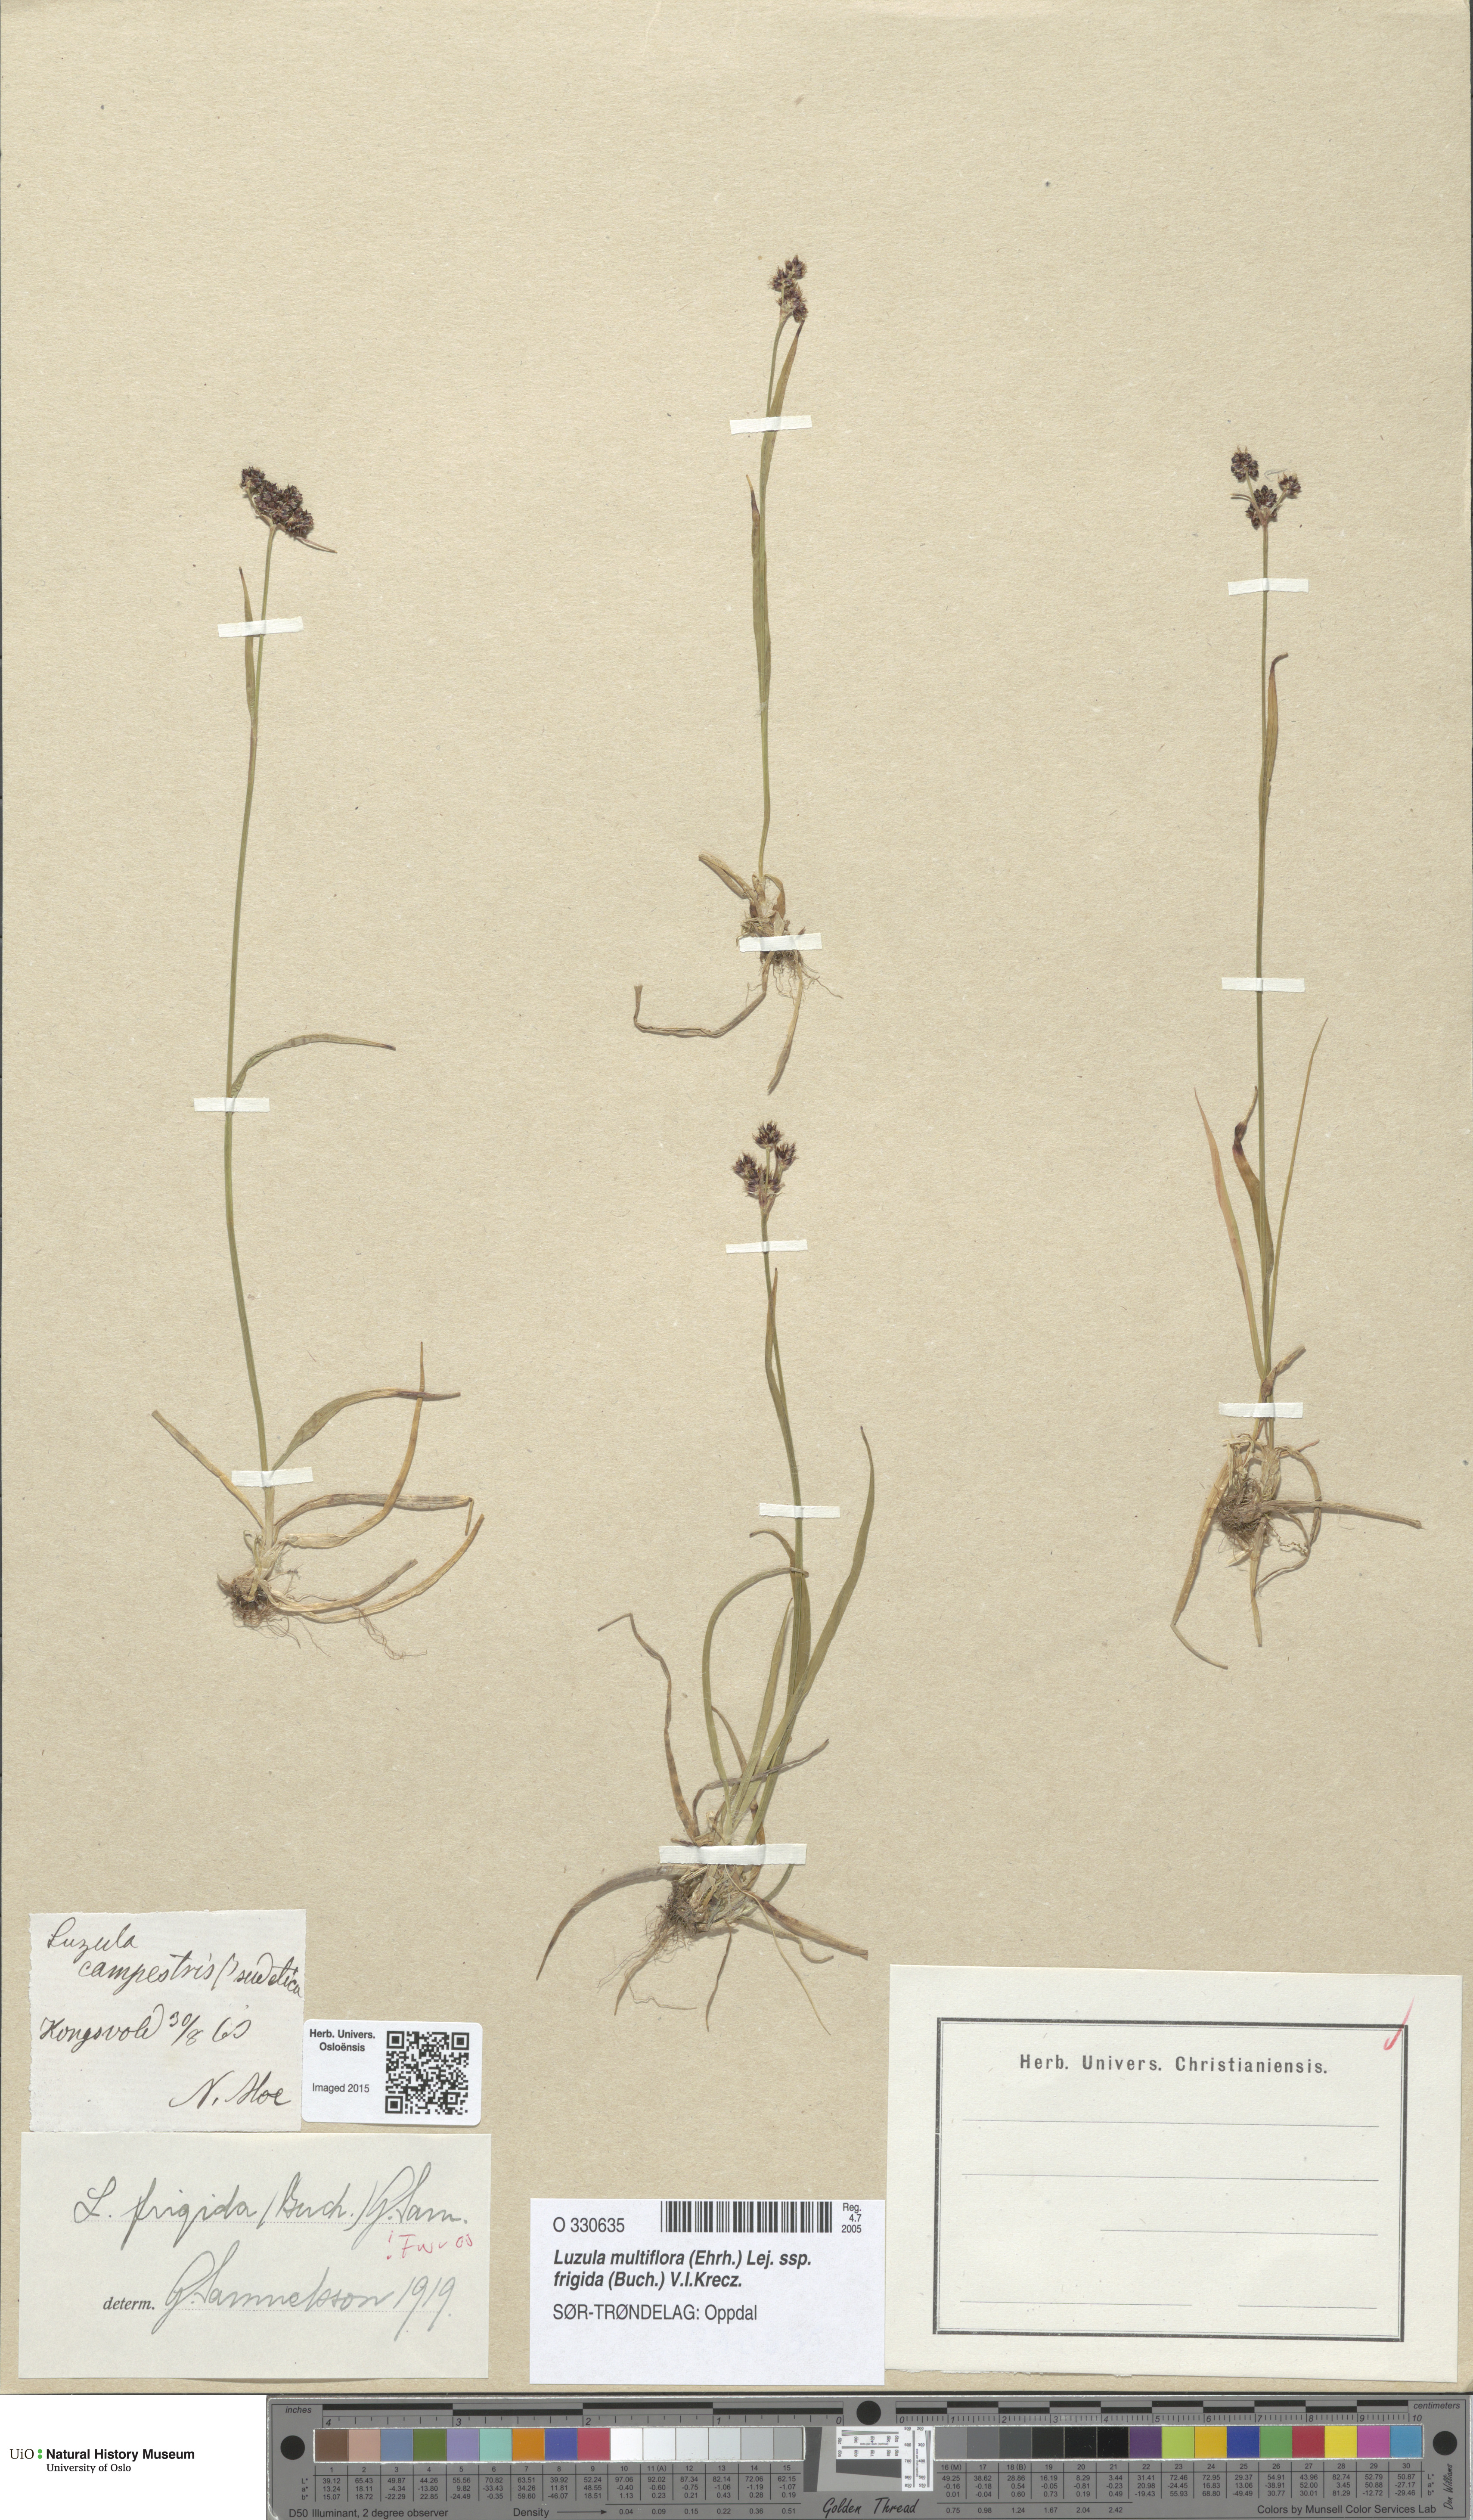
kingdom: Plantae
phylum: Tracheophyta
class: Liliopsida
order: Poales
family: Juncaceae
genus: Luzula
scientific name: Luzula multiflora
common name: Heath wood-rush
